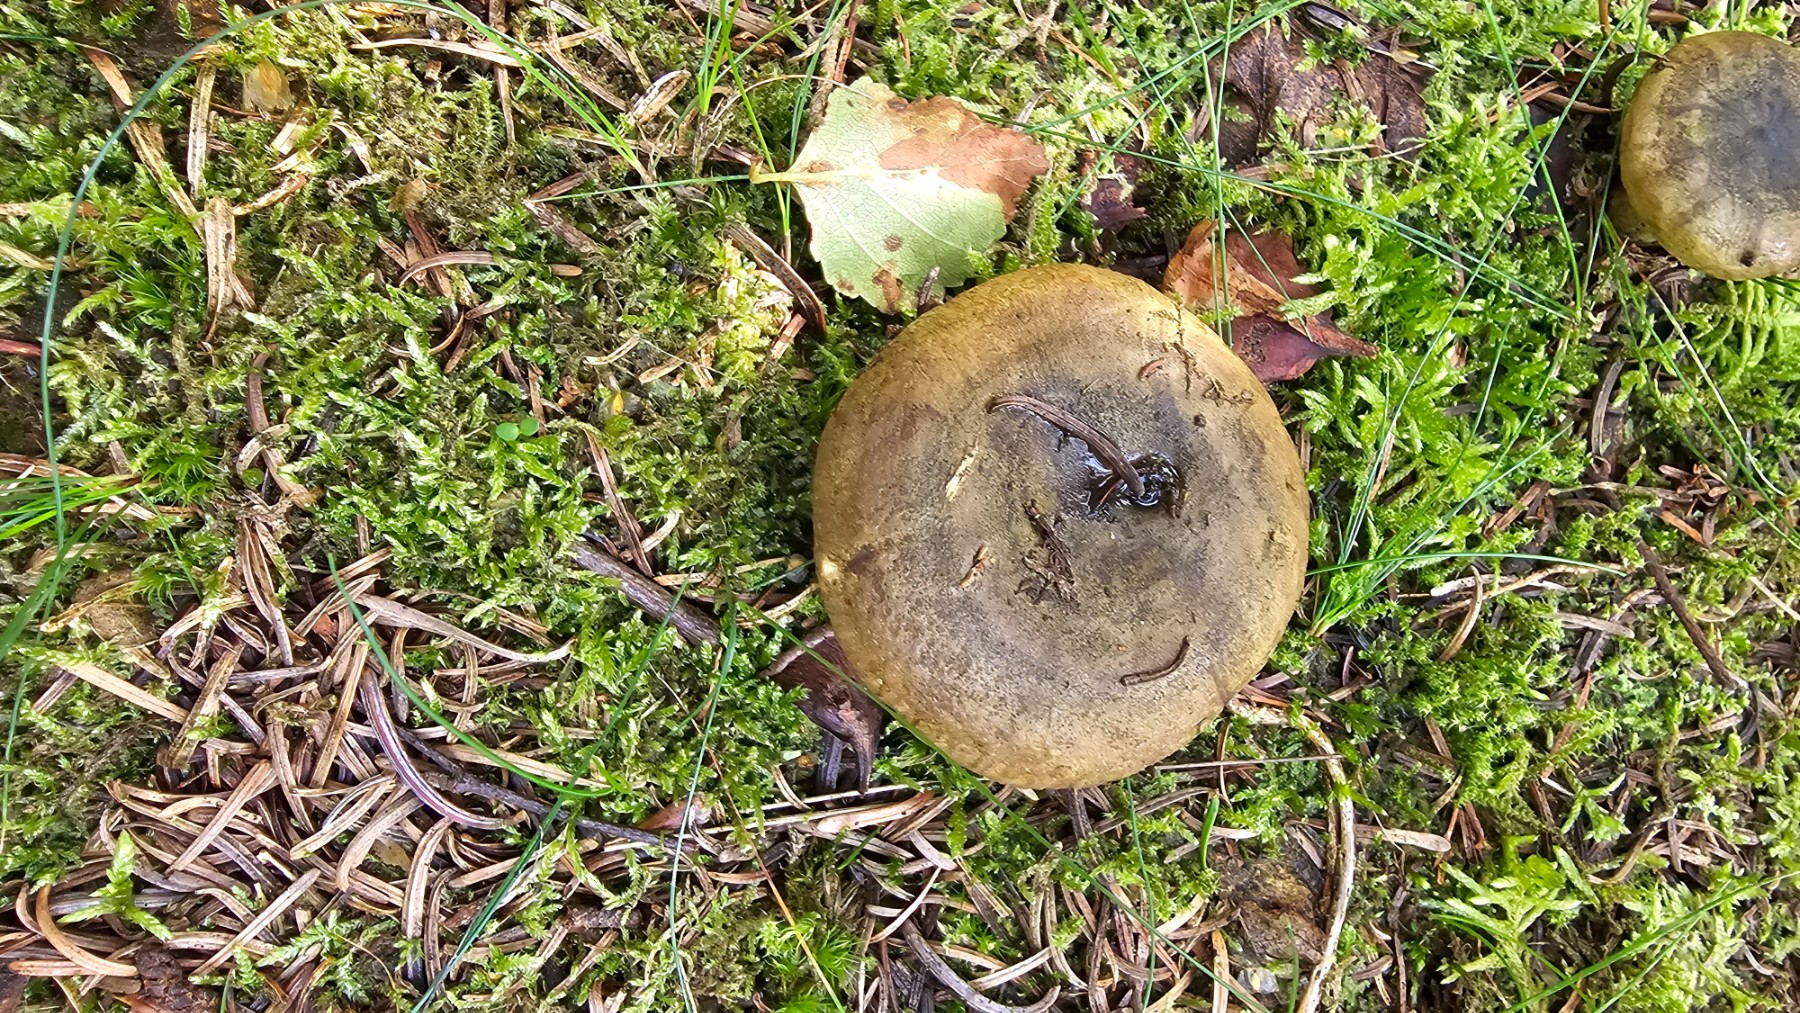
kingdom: Fungi
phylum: Basidiomycota
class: Agaricomycetes
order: Russulales
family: Russulaceae
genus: Lactarius
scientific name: Lactarius necator
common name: manddraber-mælkehat
